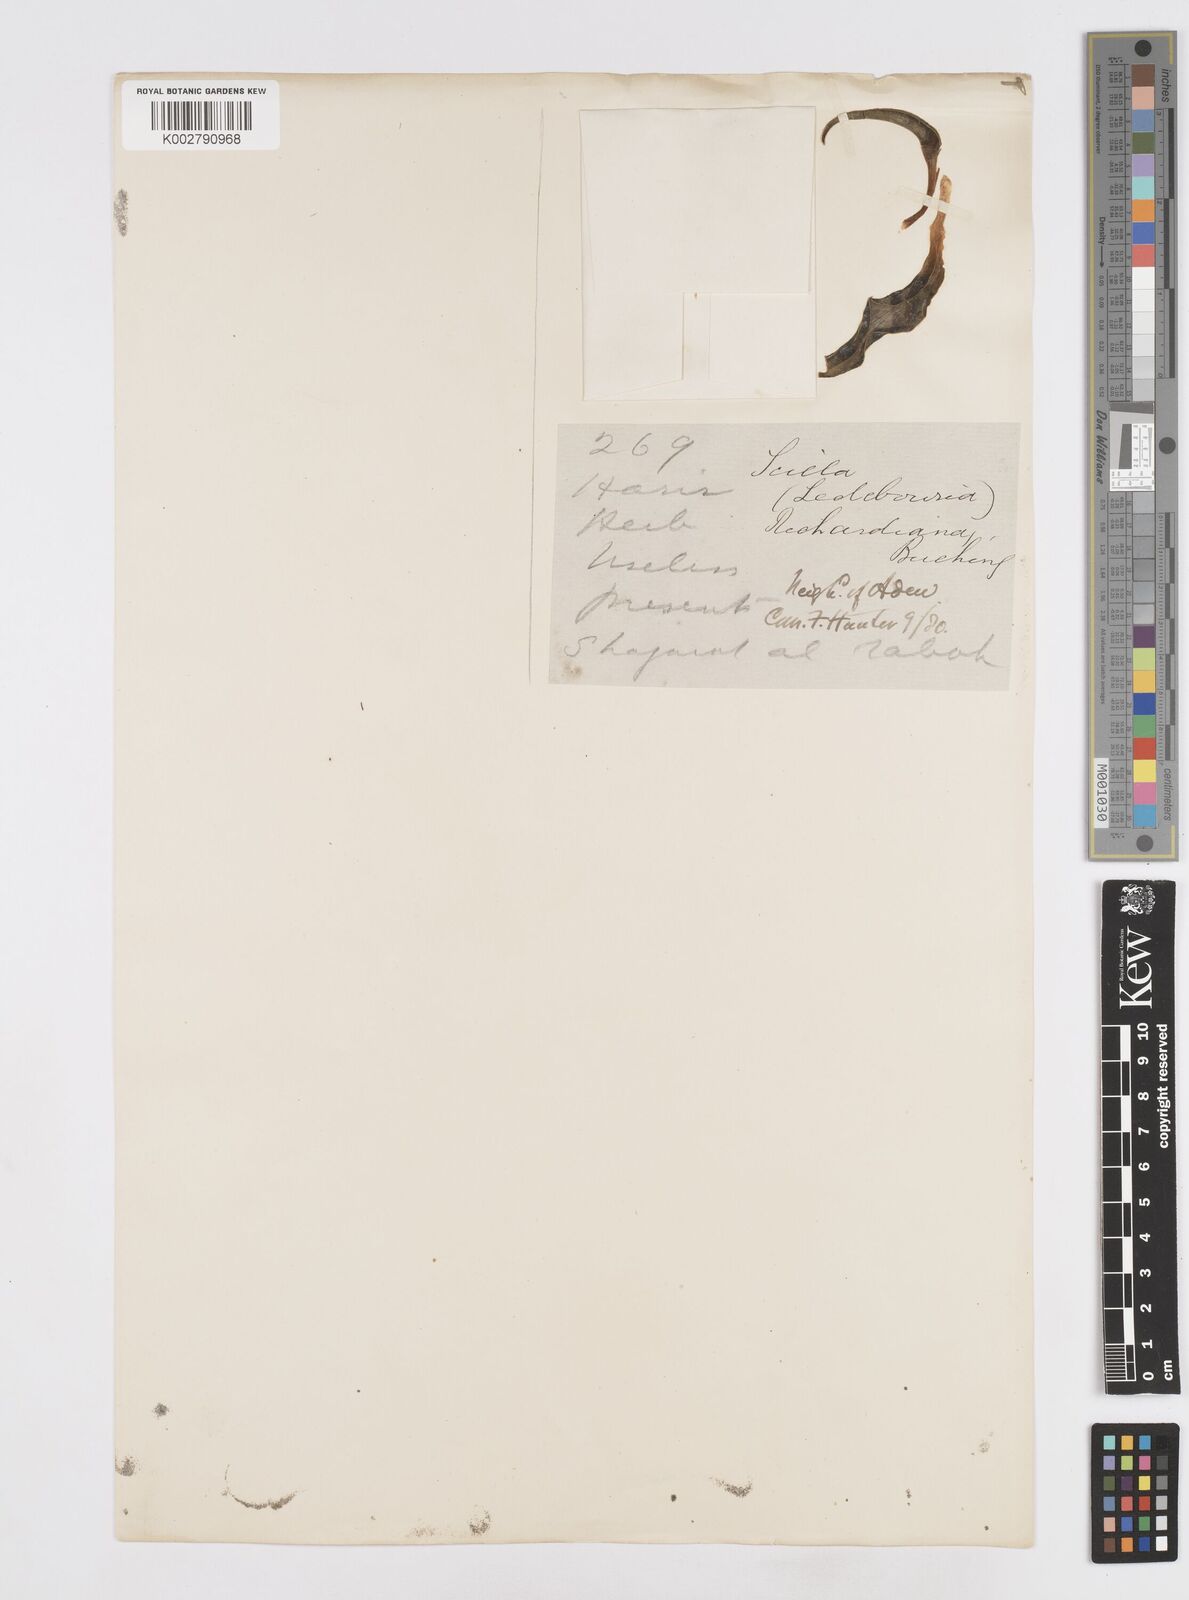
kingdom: Plantae
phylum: Tracheophyta
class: Liliopsida
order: Asparagales
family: Asparagaceae
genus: Ledebouria
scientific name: Ledebouria revoluta
